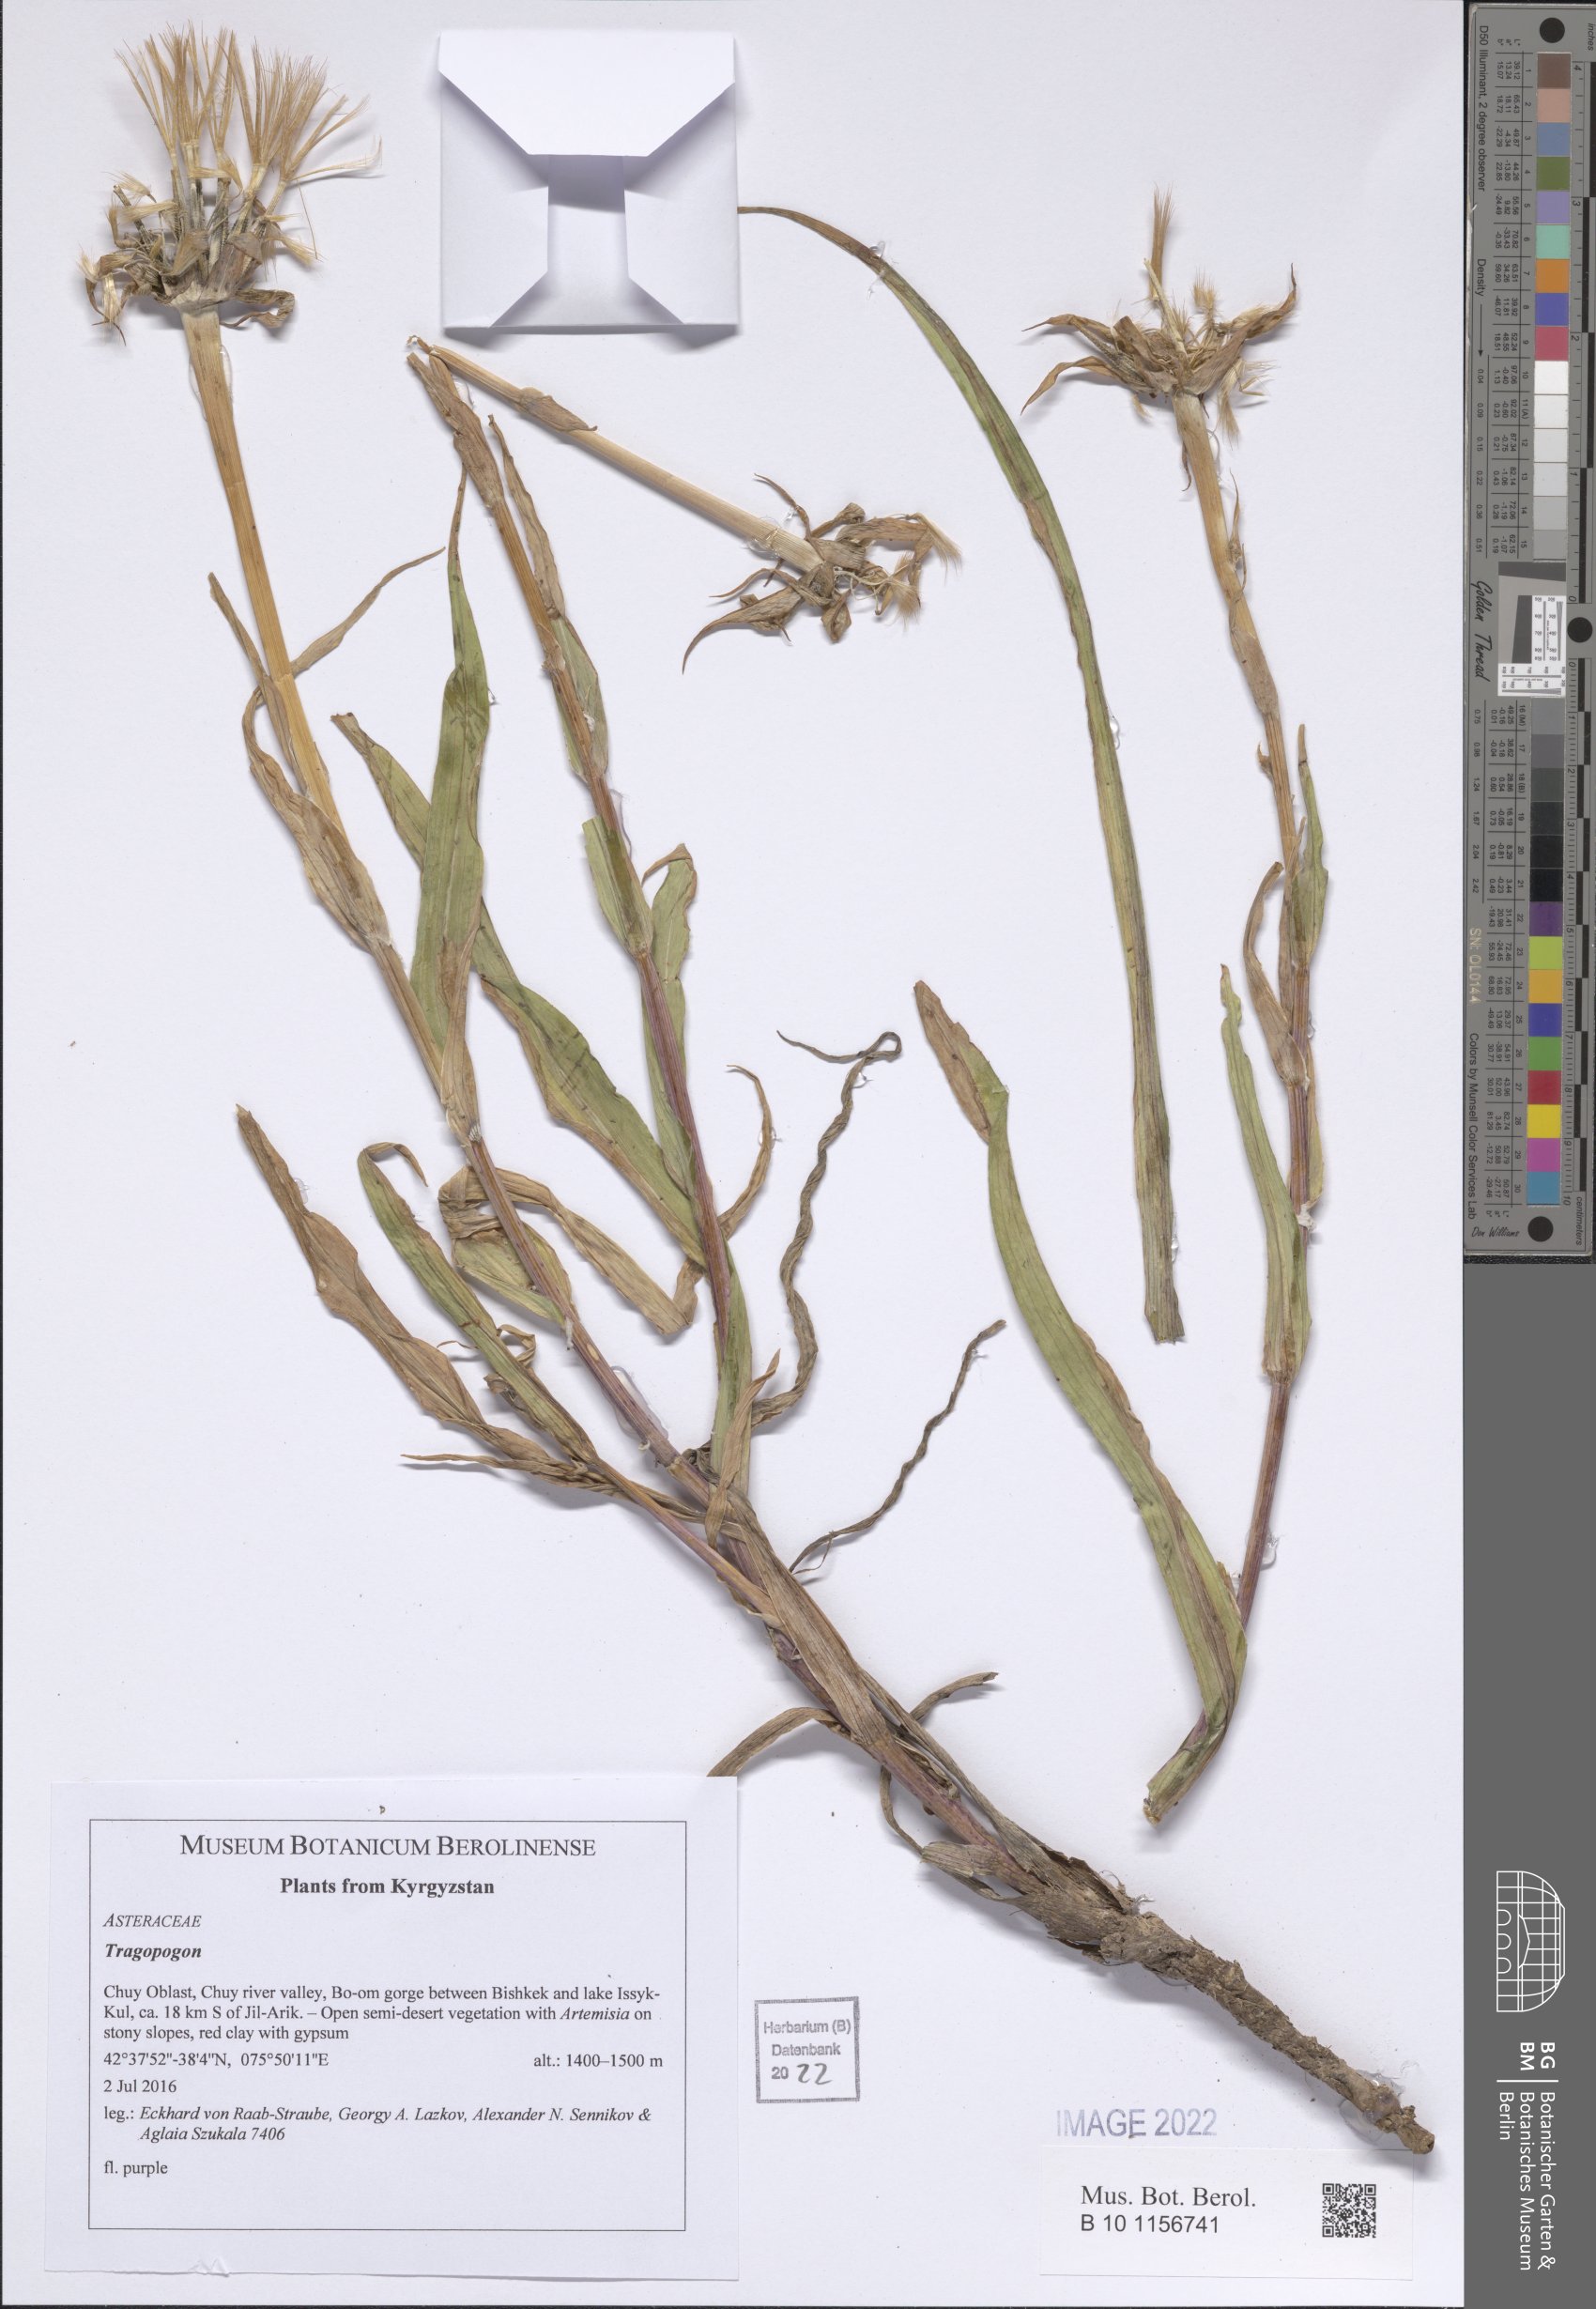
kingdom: Plantae
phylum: Tracheophyta
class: Magnoliopsida
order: Asterales
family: Asteraceae
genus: Tragopogon
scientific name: Tragopogon
